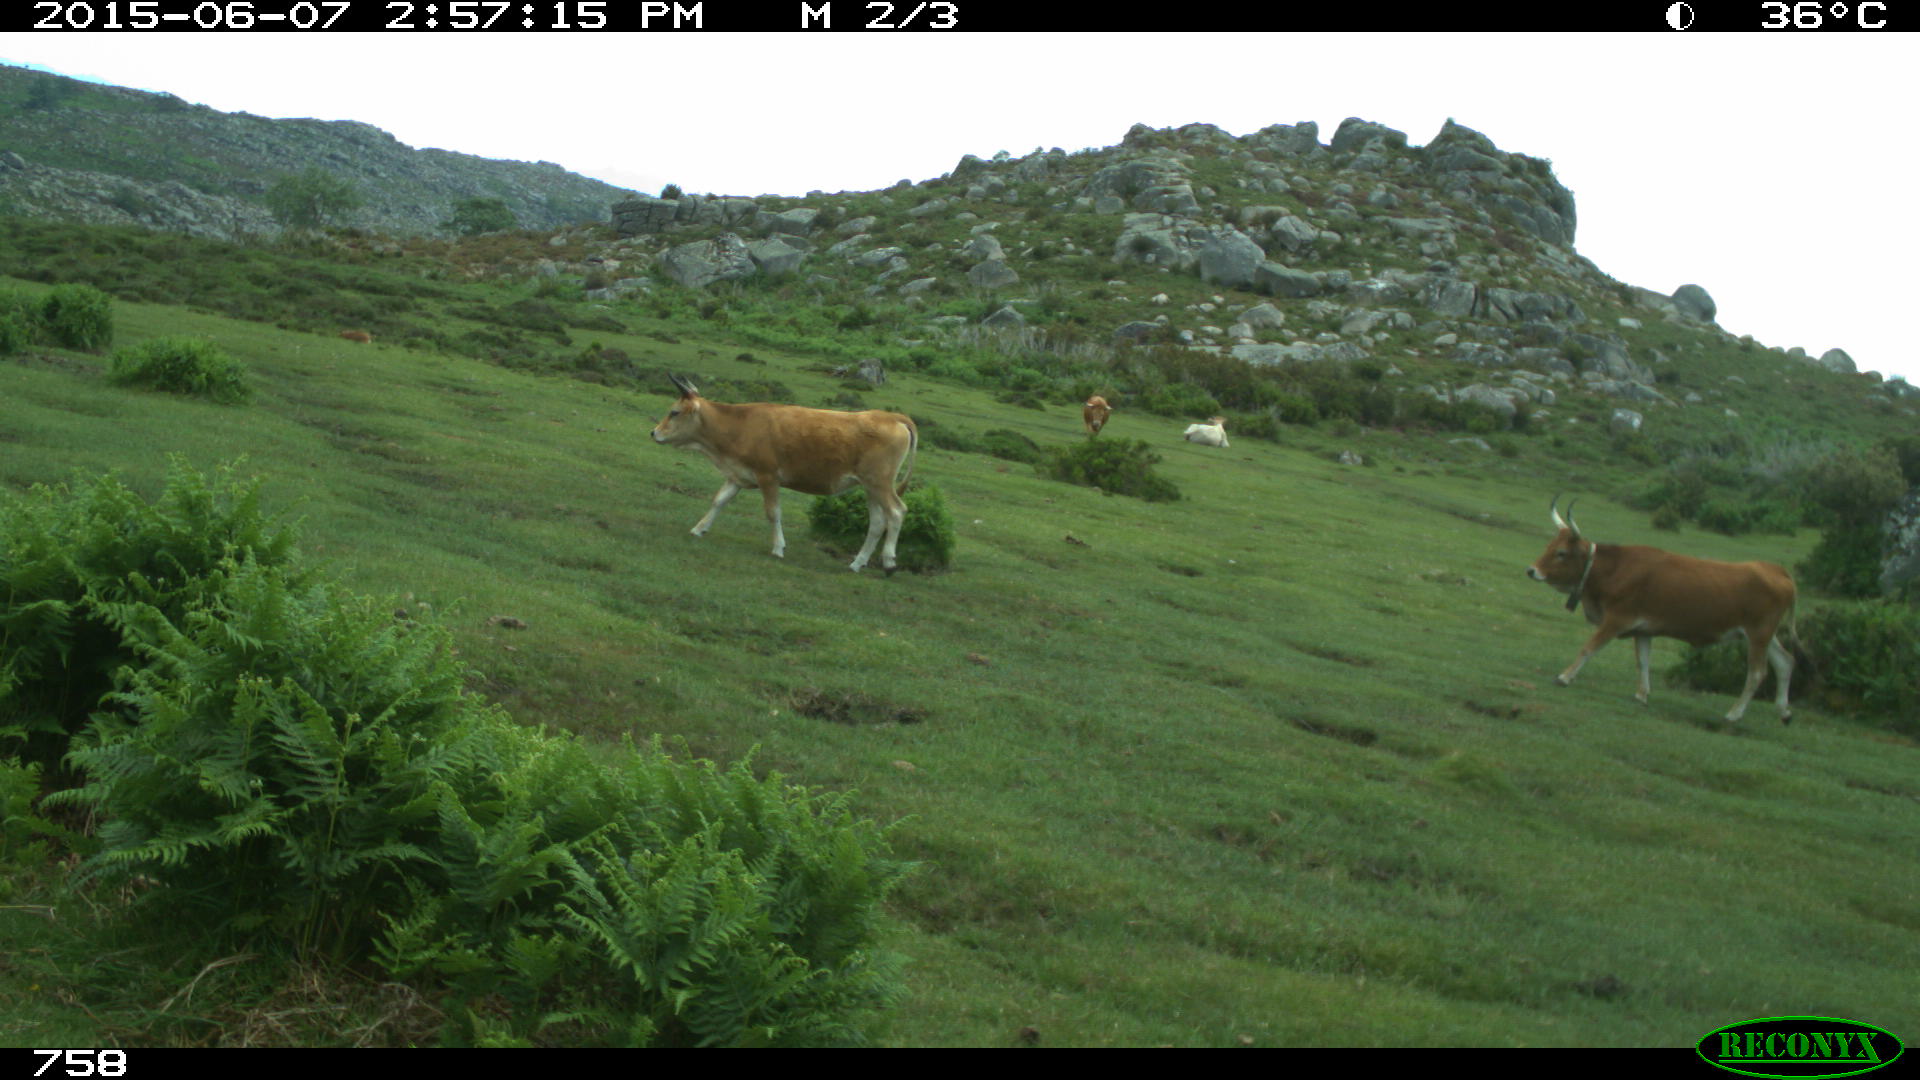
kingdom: Animalia
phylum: Chordata
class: Mammalia
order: Artiodactyla
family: Bovidae
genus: Bos
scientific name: Bos taurus
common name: Domesticated cattle
